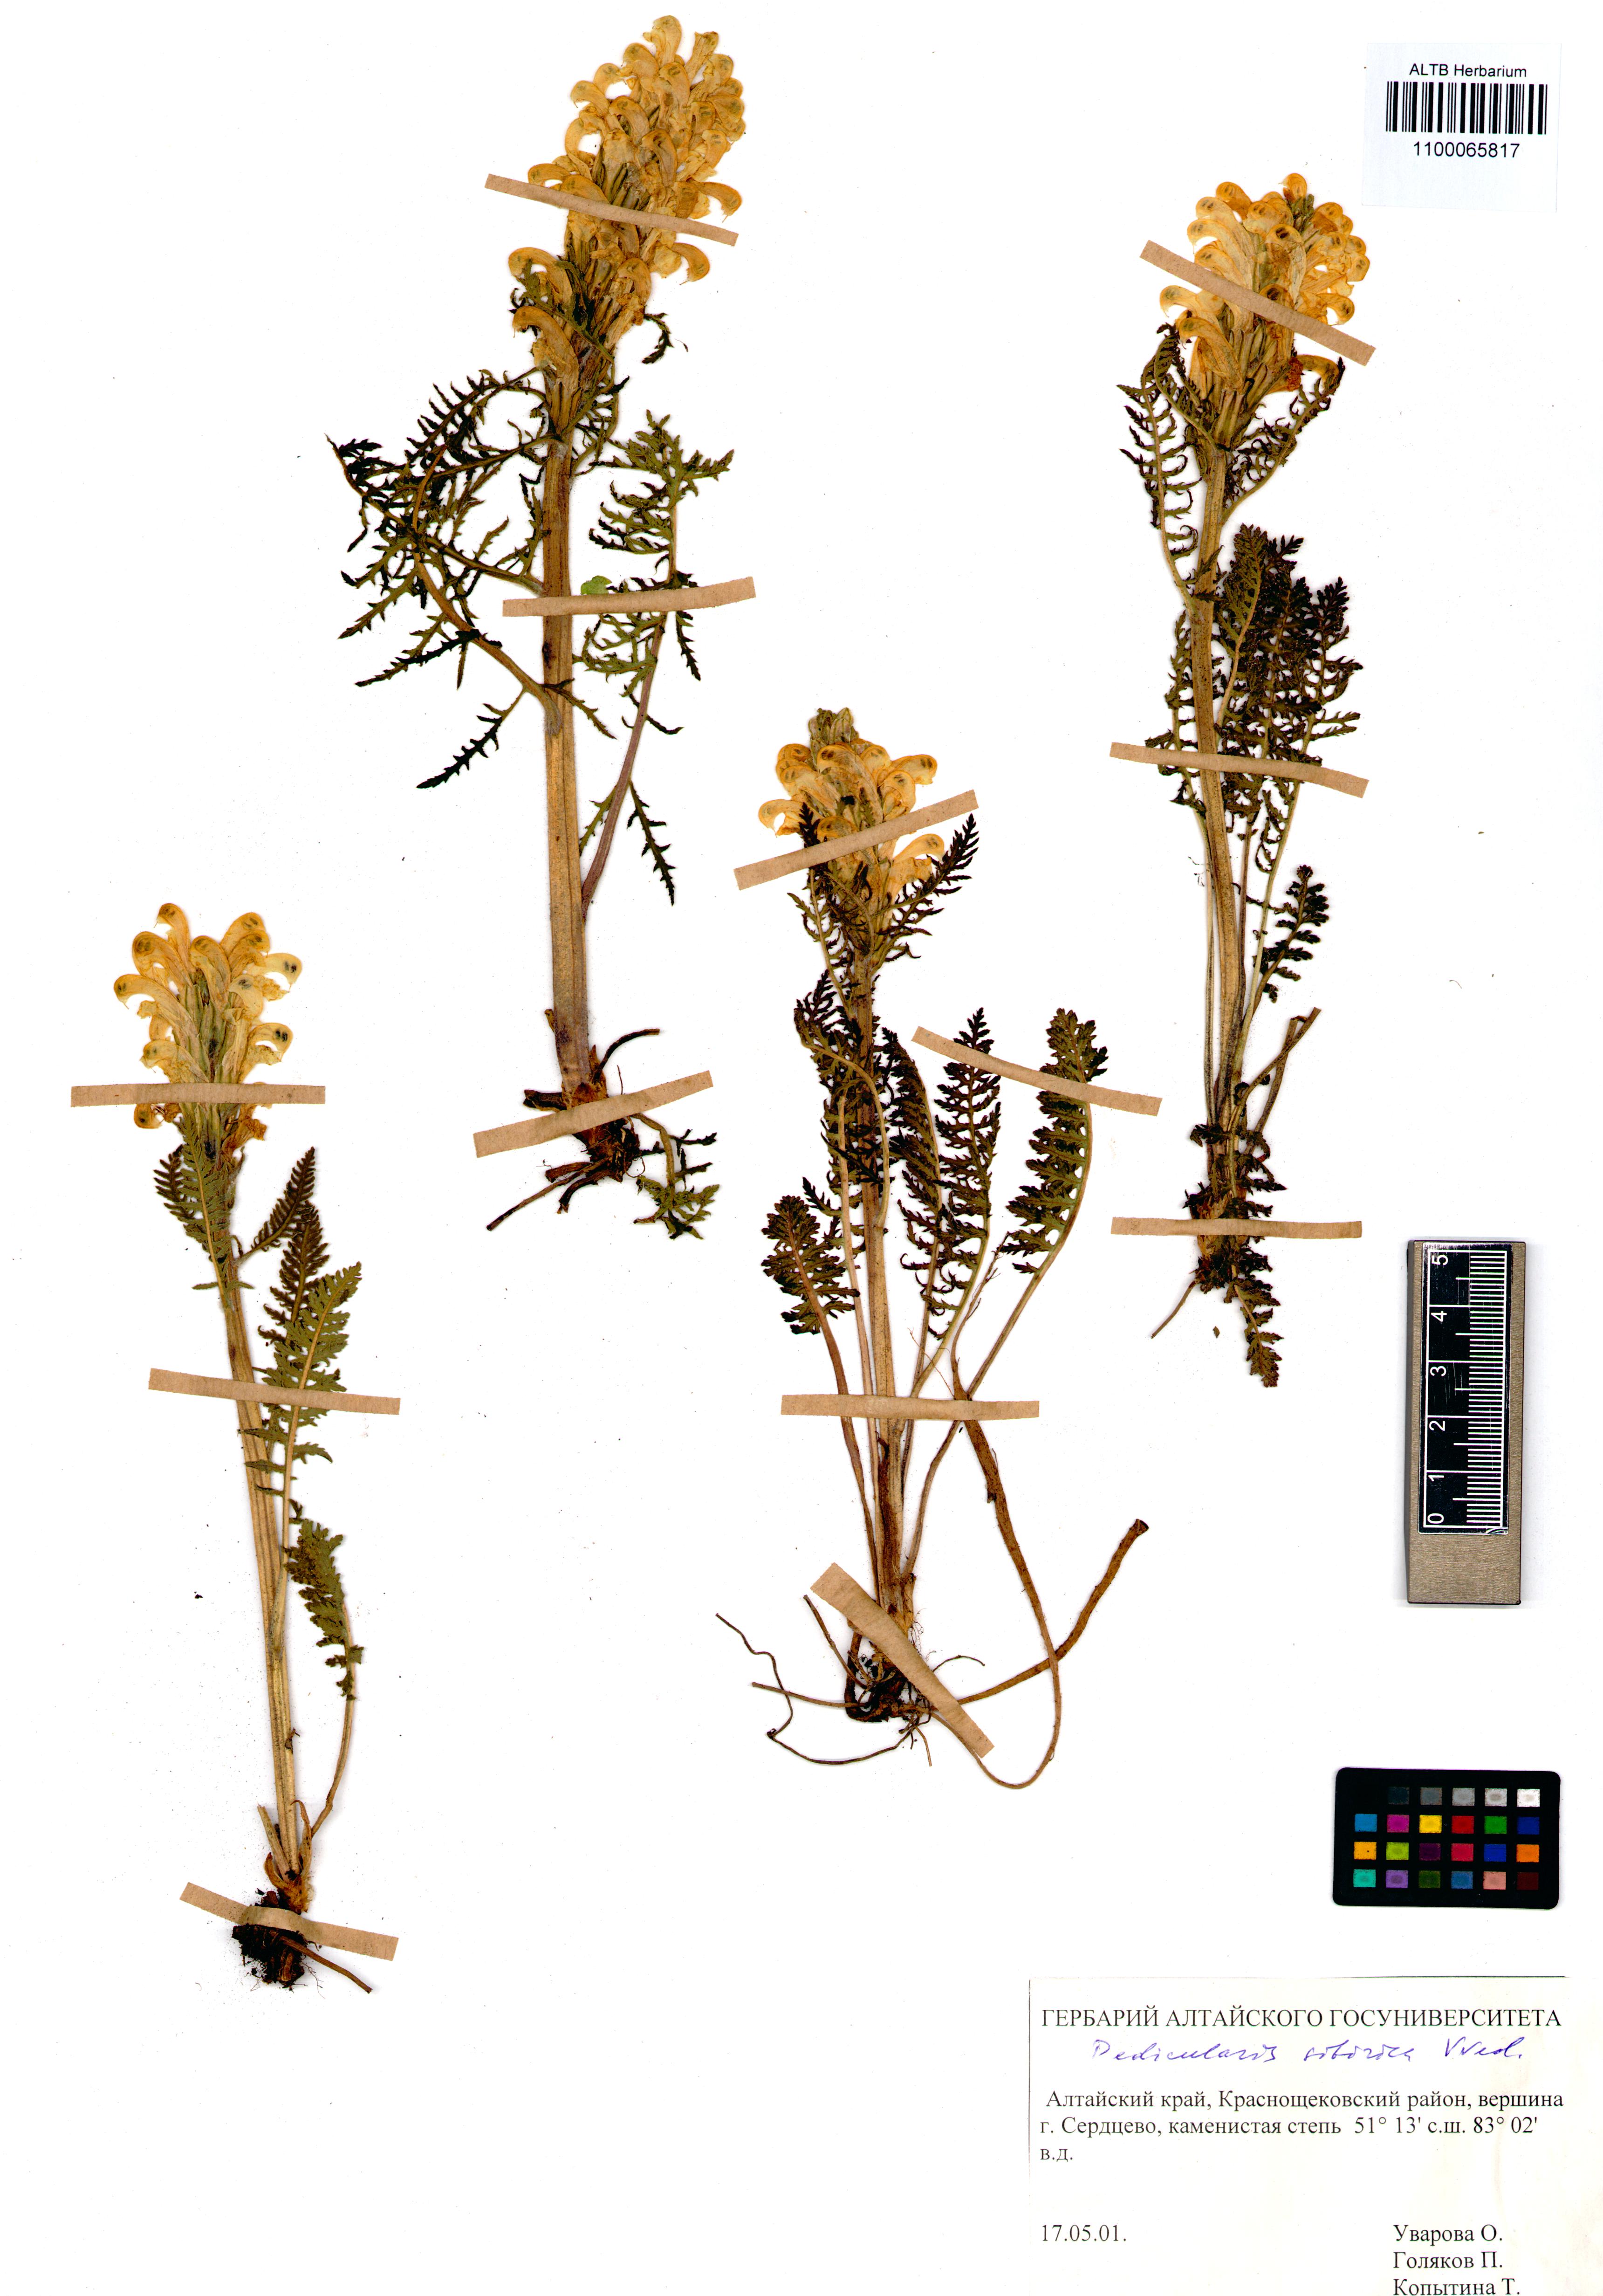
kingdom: Plantae
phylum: Tracheophyta
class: Magnoliopsida
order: Lamiales
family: Orobanchaceae
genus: Pedicularis
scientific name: Pedicularis sibirica
